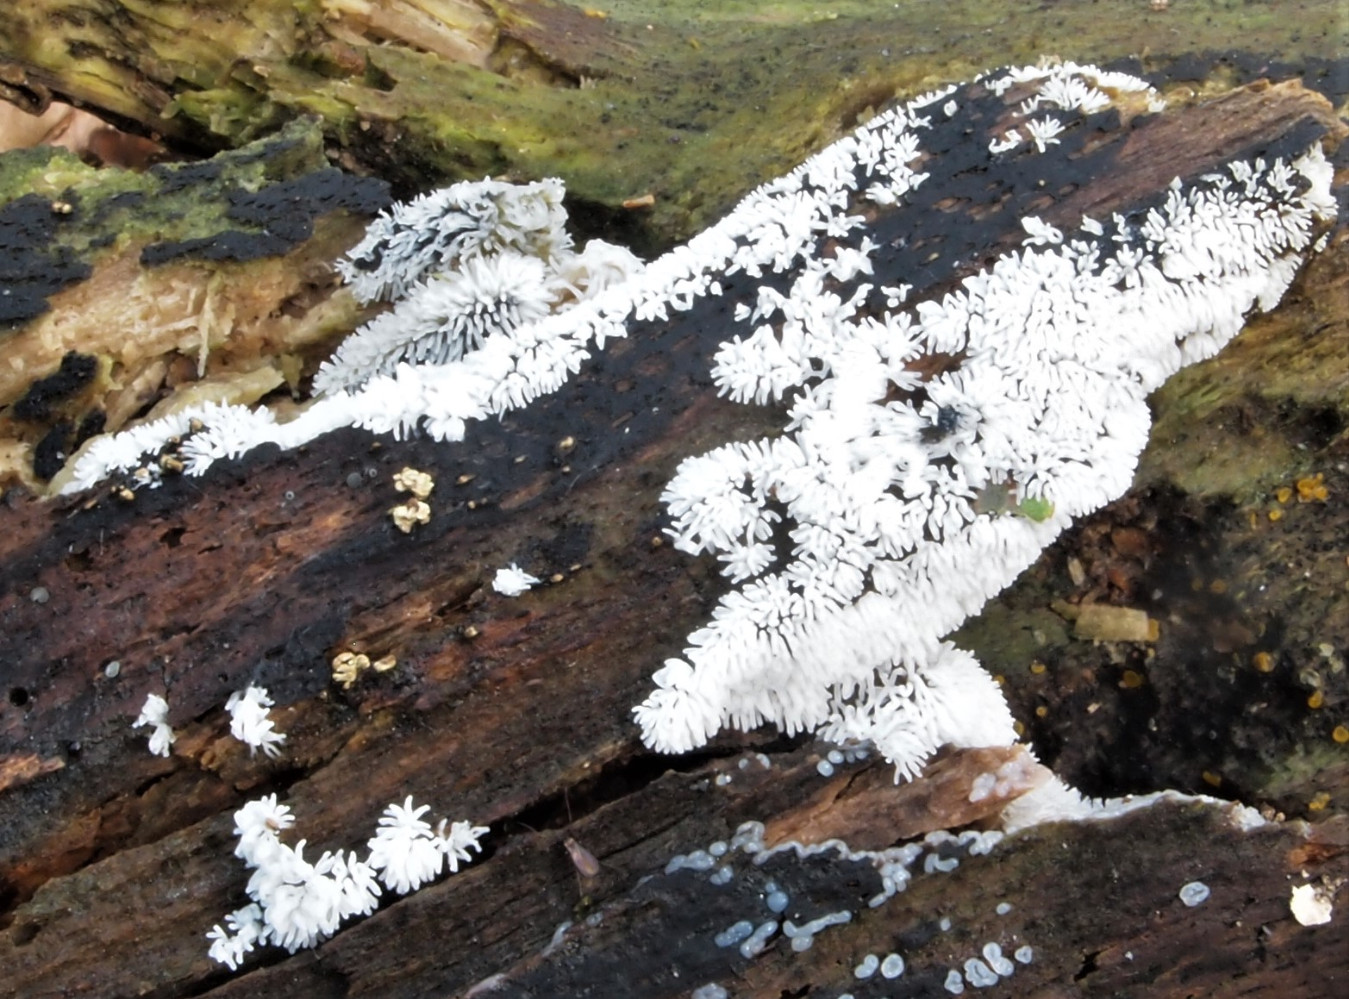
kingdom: Protozoa
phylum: Mycetozoa
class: Protosteliomycetes
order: Ceratiomyxales
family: Ceratiomyxaceae
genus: Ceratiomyxa
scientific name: Ceratiomyxa fruticulosa
